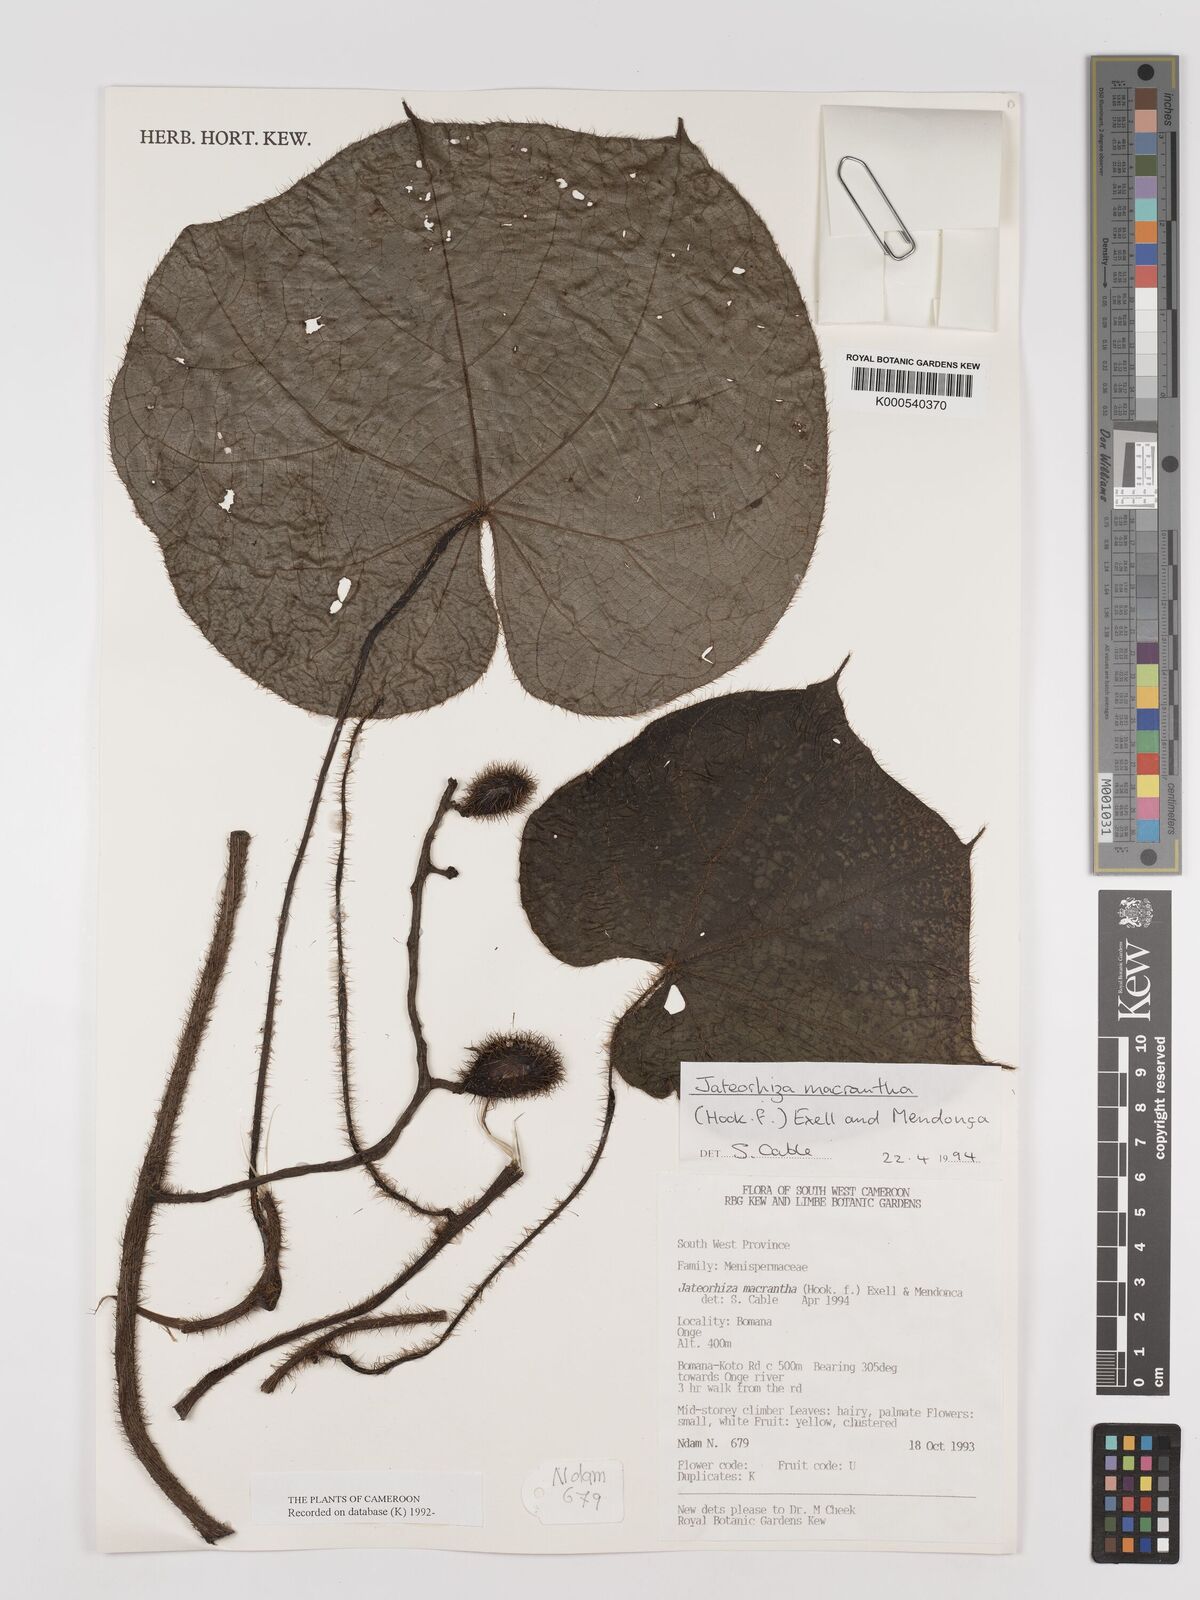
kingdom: Plantae
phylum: Tracheophyta
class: Magnoliopsida
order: Ranunculales
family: Menispermaceae
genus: Jateorhiza
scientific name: Jateorhiza
